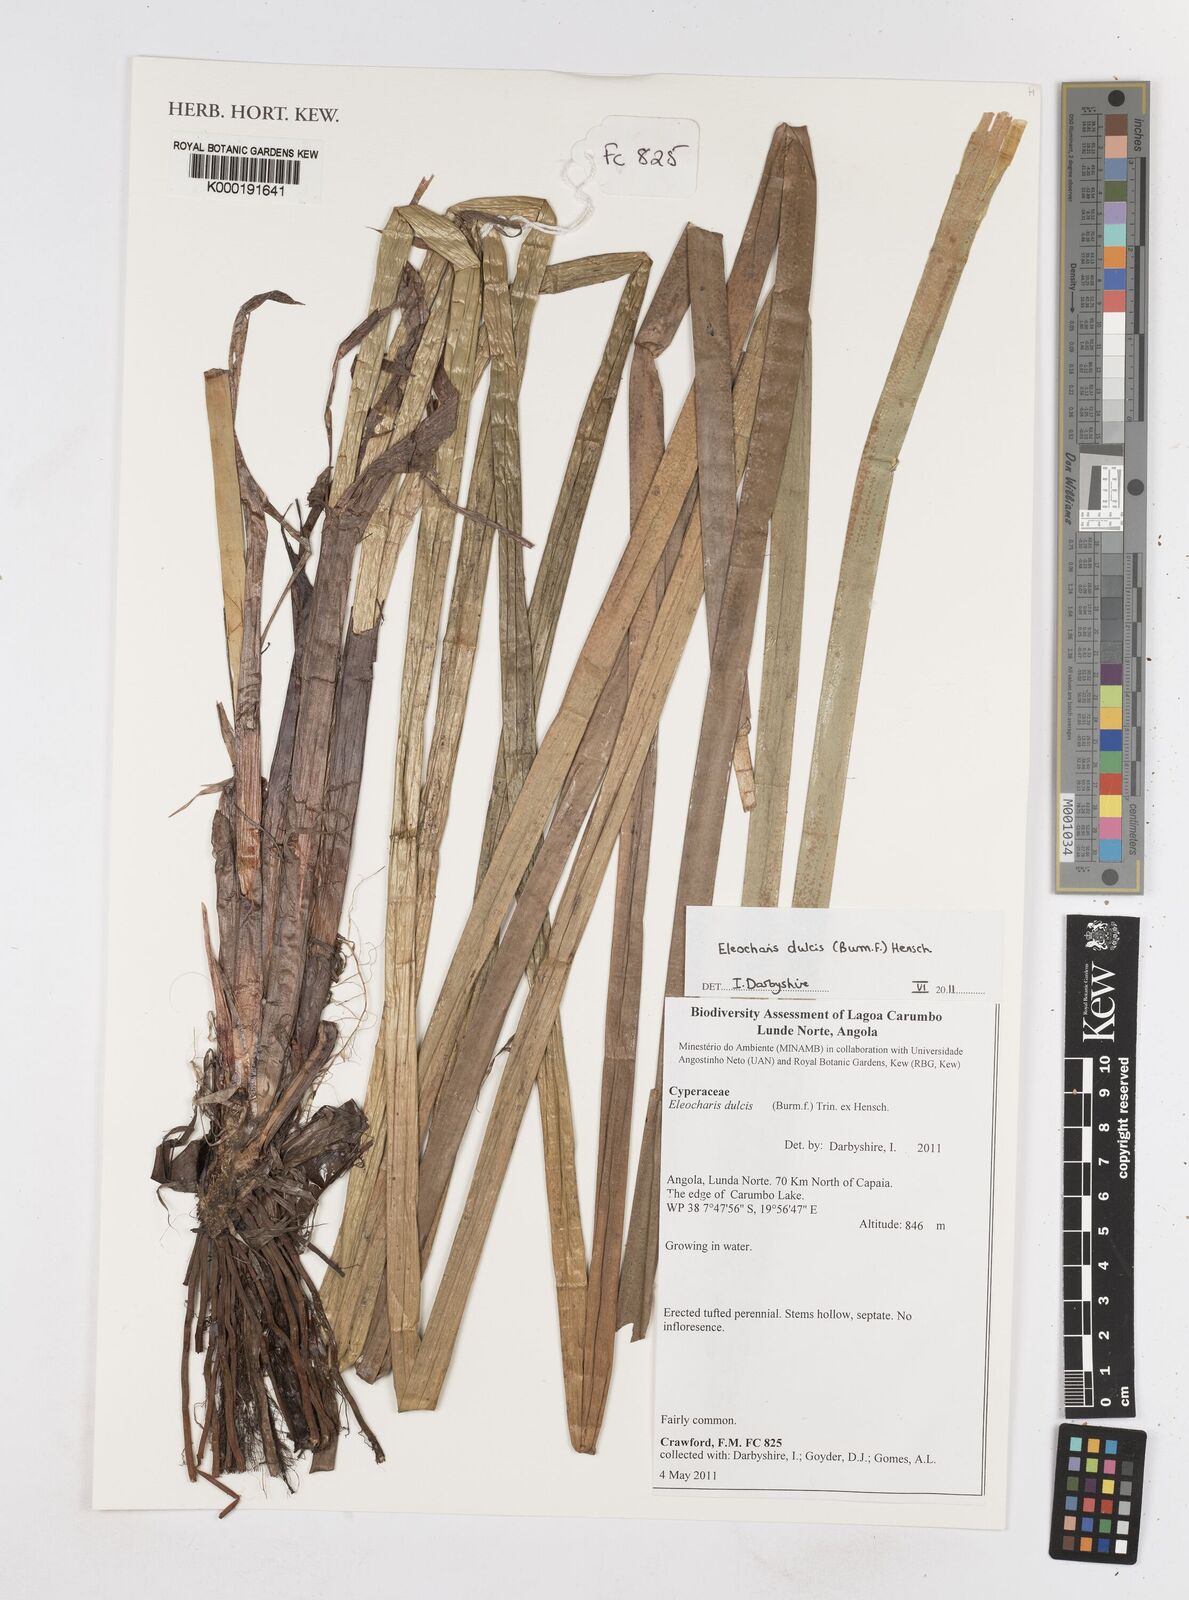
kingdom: Plantae
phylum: Tracheophyta
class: Liliopsida
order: Poales
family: Cyperaceae
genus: Eleocharis
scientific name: Eleocharis dulcis
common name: Chinese water chestnut
